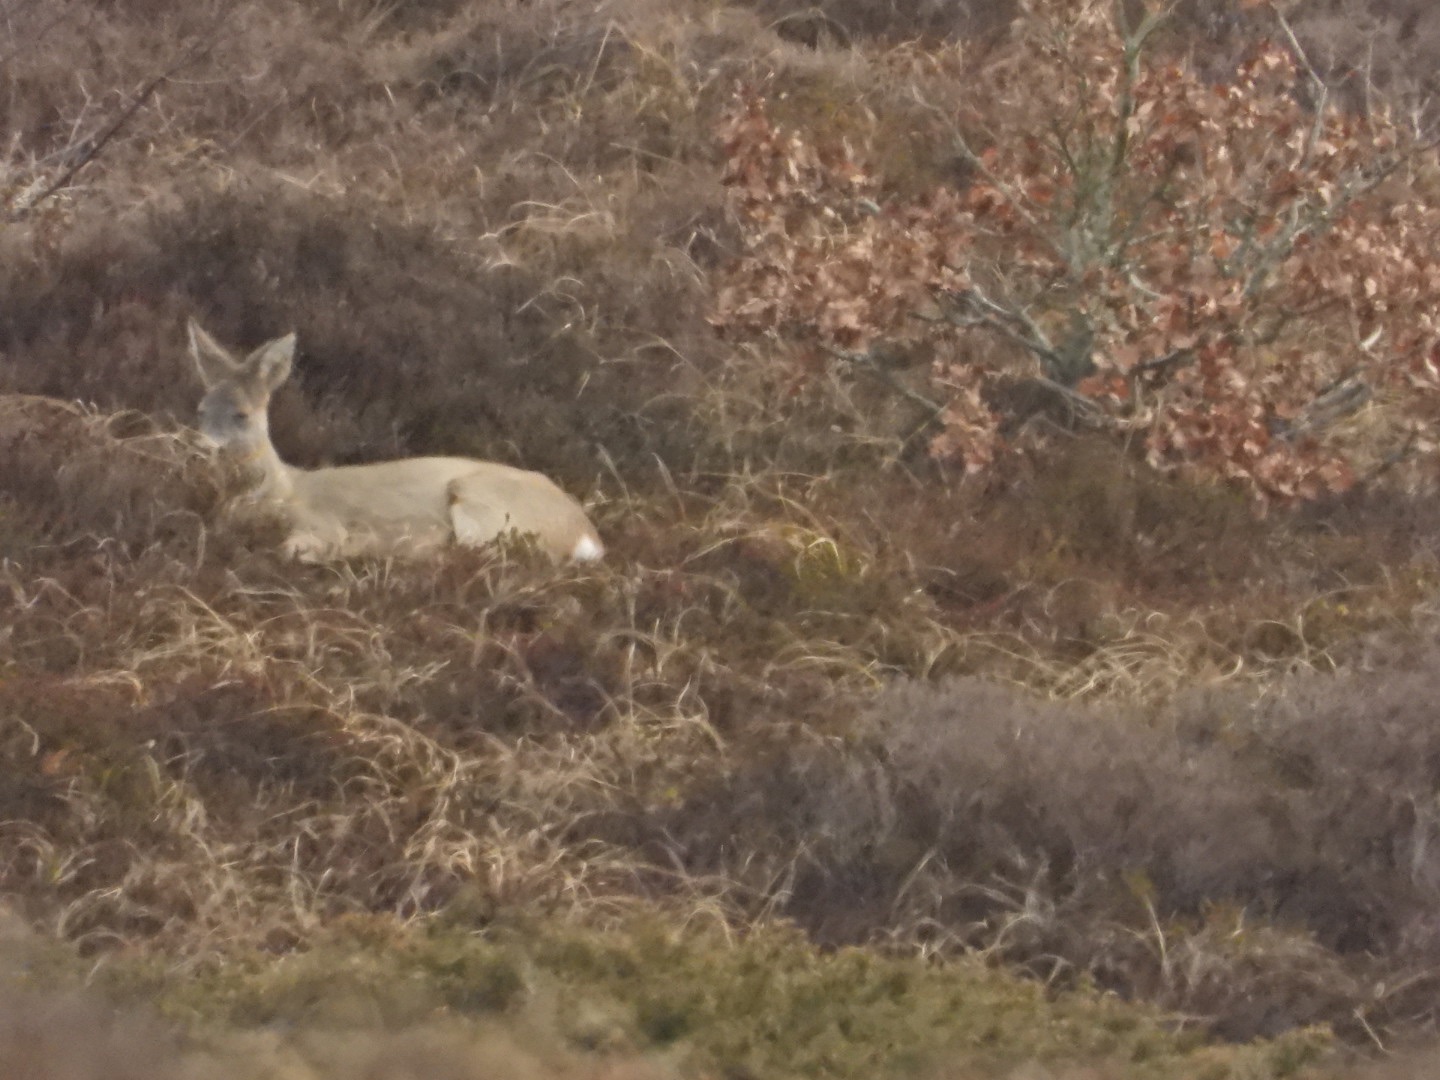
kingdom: Animalia
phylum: Chordata
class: Mammalia
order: Artiodactyla
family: Cervidae
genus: Capreolus
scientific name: Capreolus capreolus
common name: Rådyr
